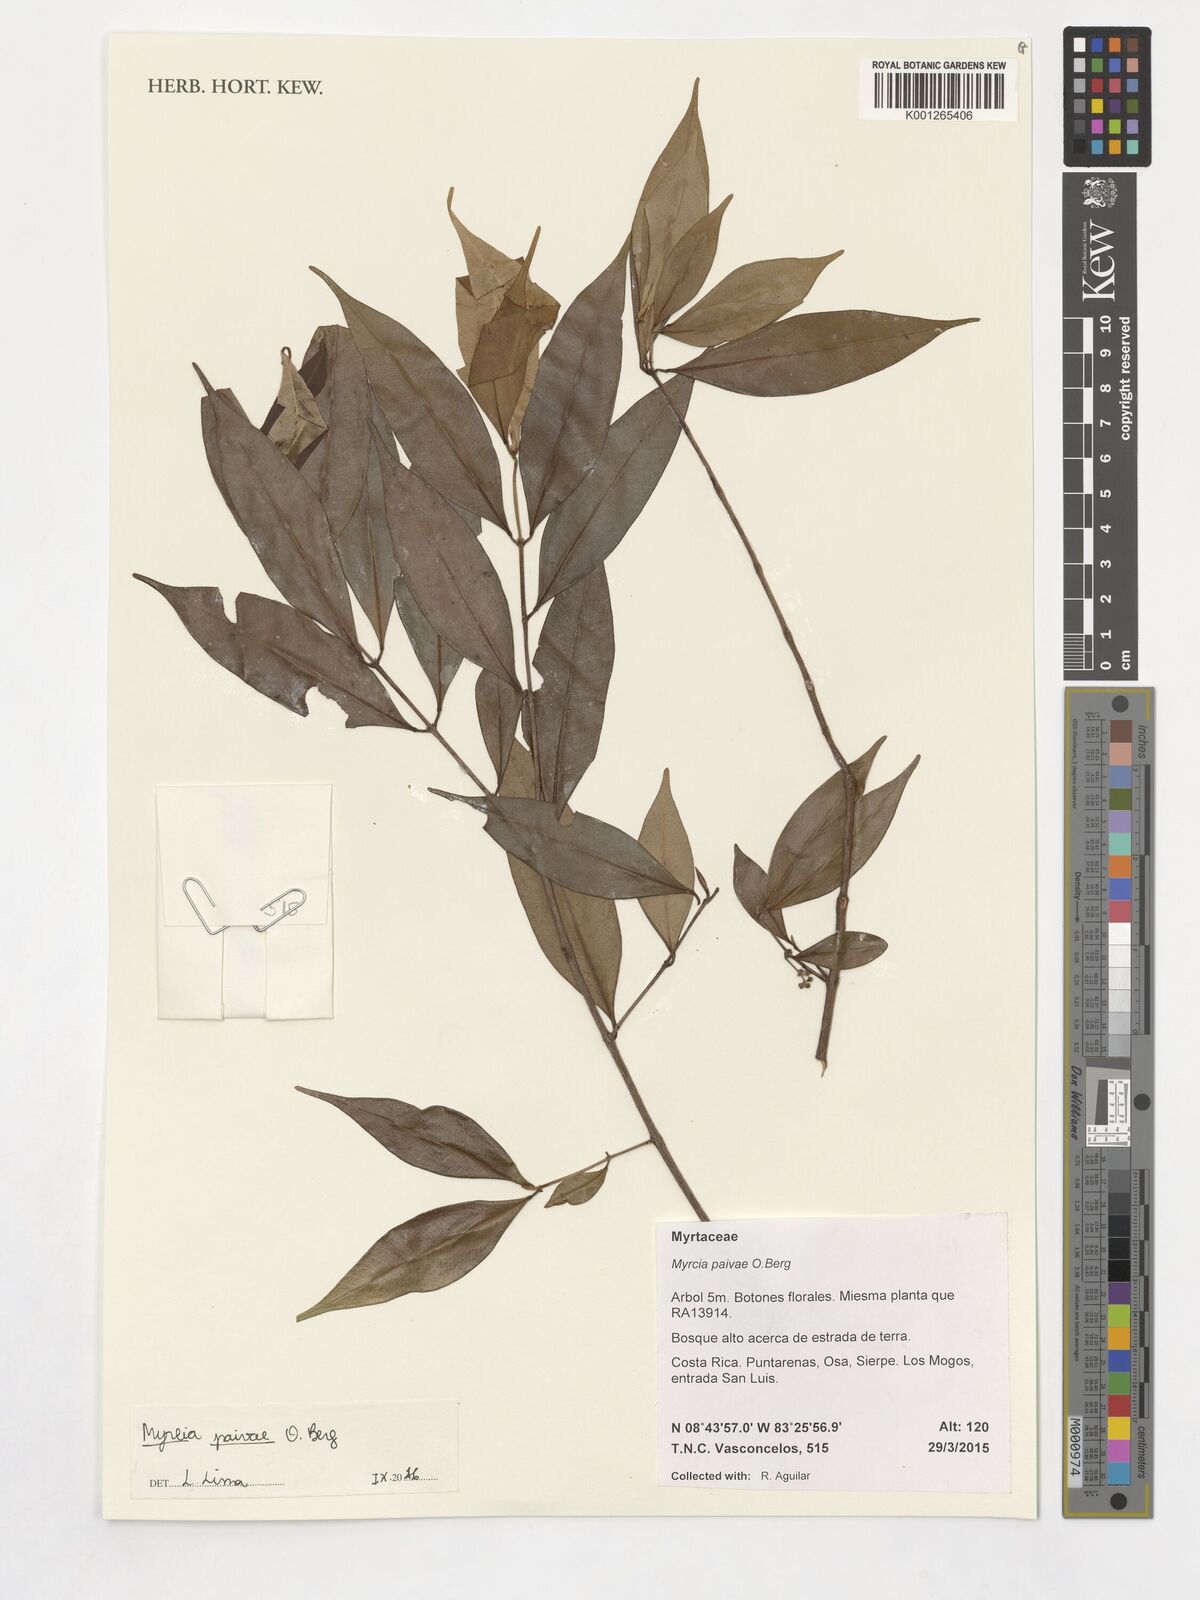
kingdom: Plantae
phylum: Tracheophyta
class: Magnoliopsida
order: Myrtales
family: Myrtaceae
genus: Myrcia
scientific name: Myrcia paivae
